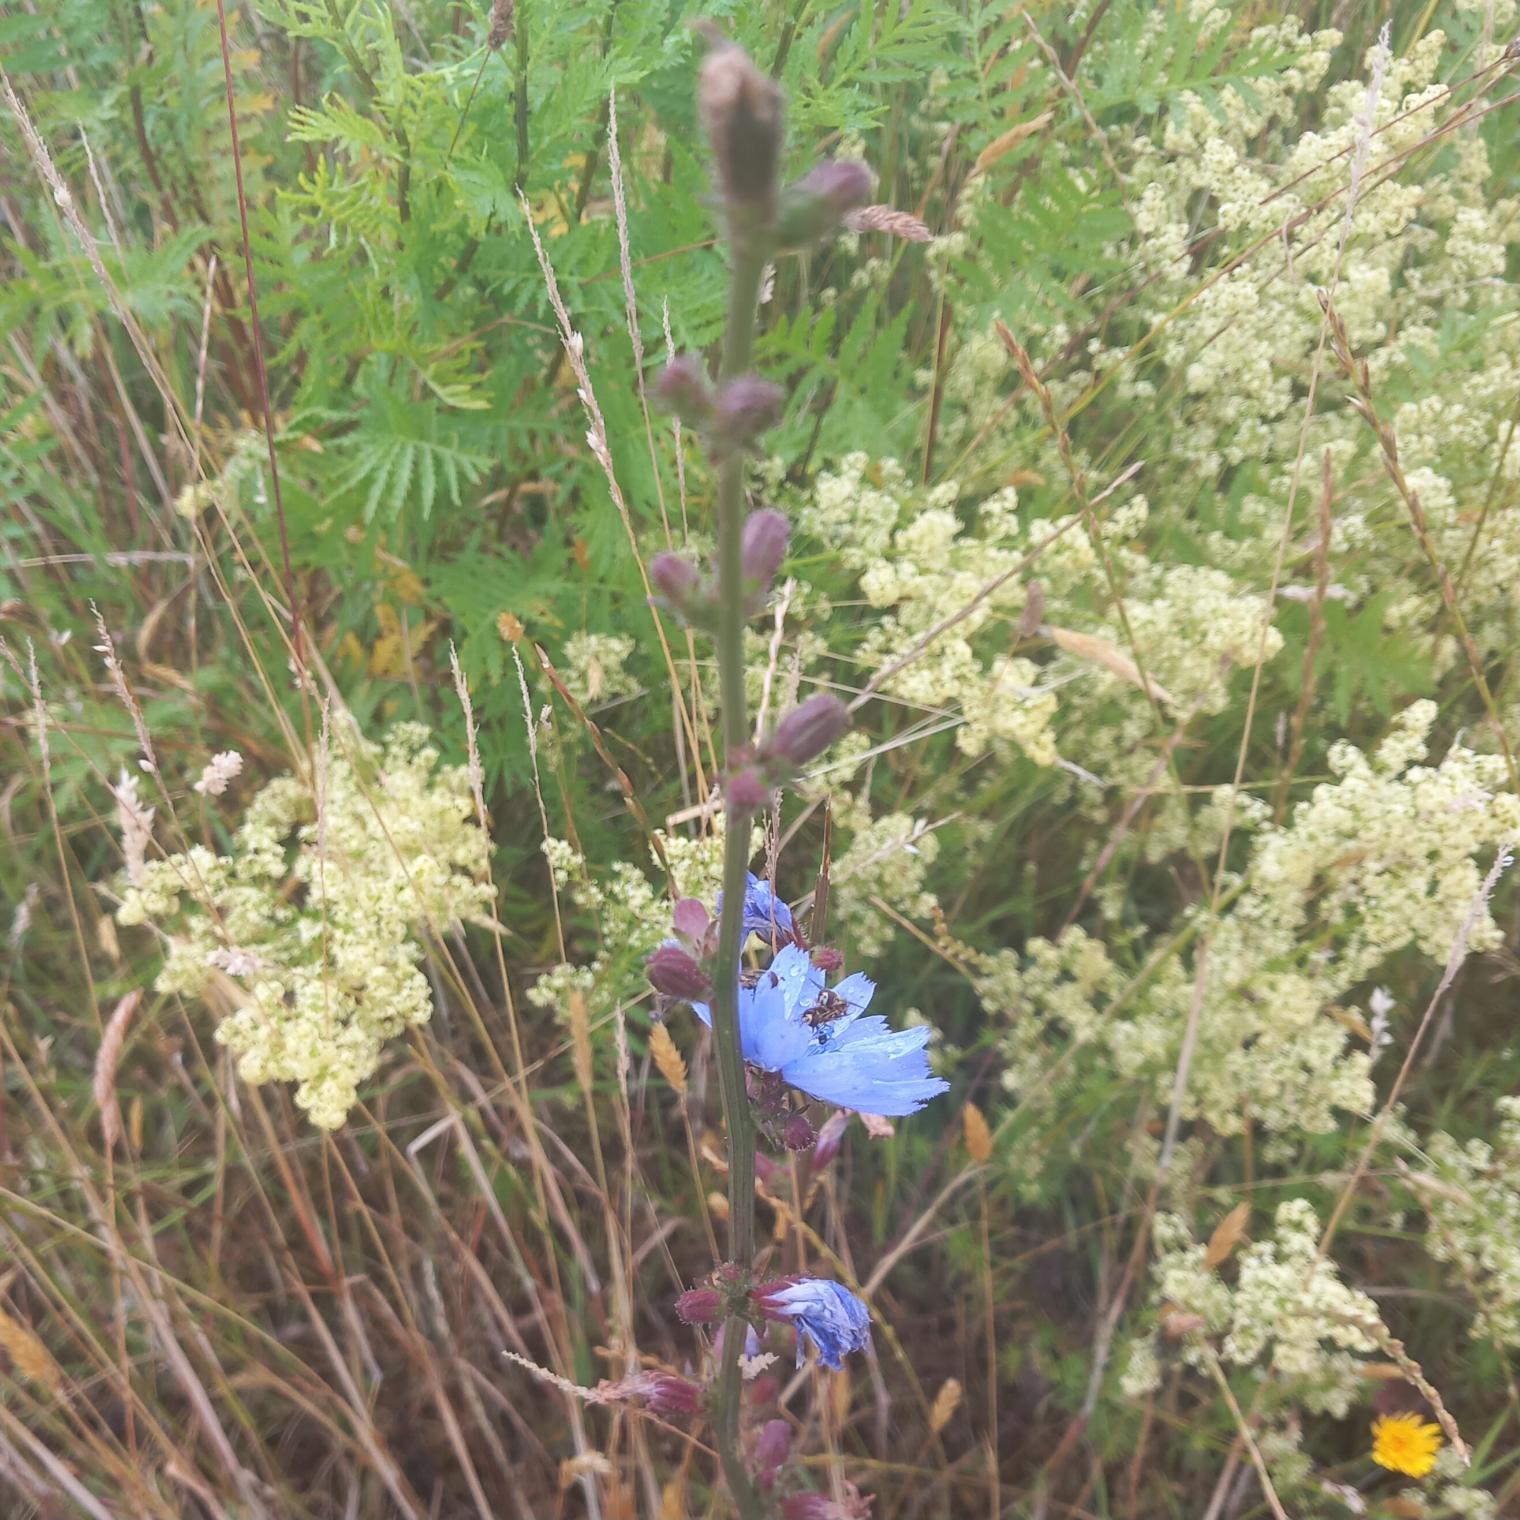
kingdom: Plantae
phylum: Tracheophyta
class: Magnoliopsida
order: Asterales
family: Asteraceae
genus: Cichorium
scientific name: Cichorium intybus
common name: Cikorie
